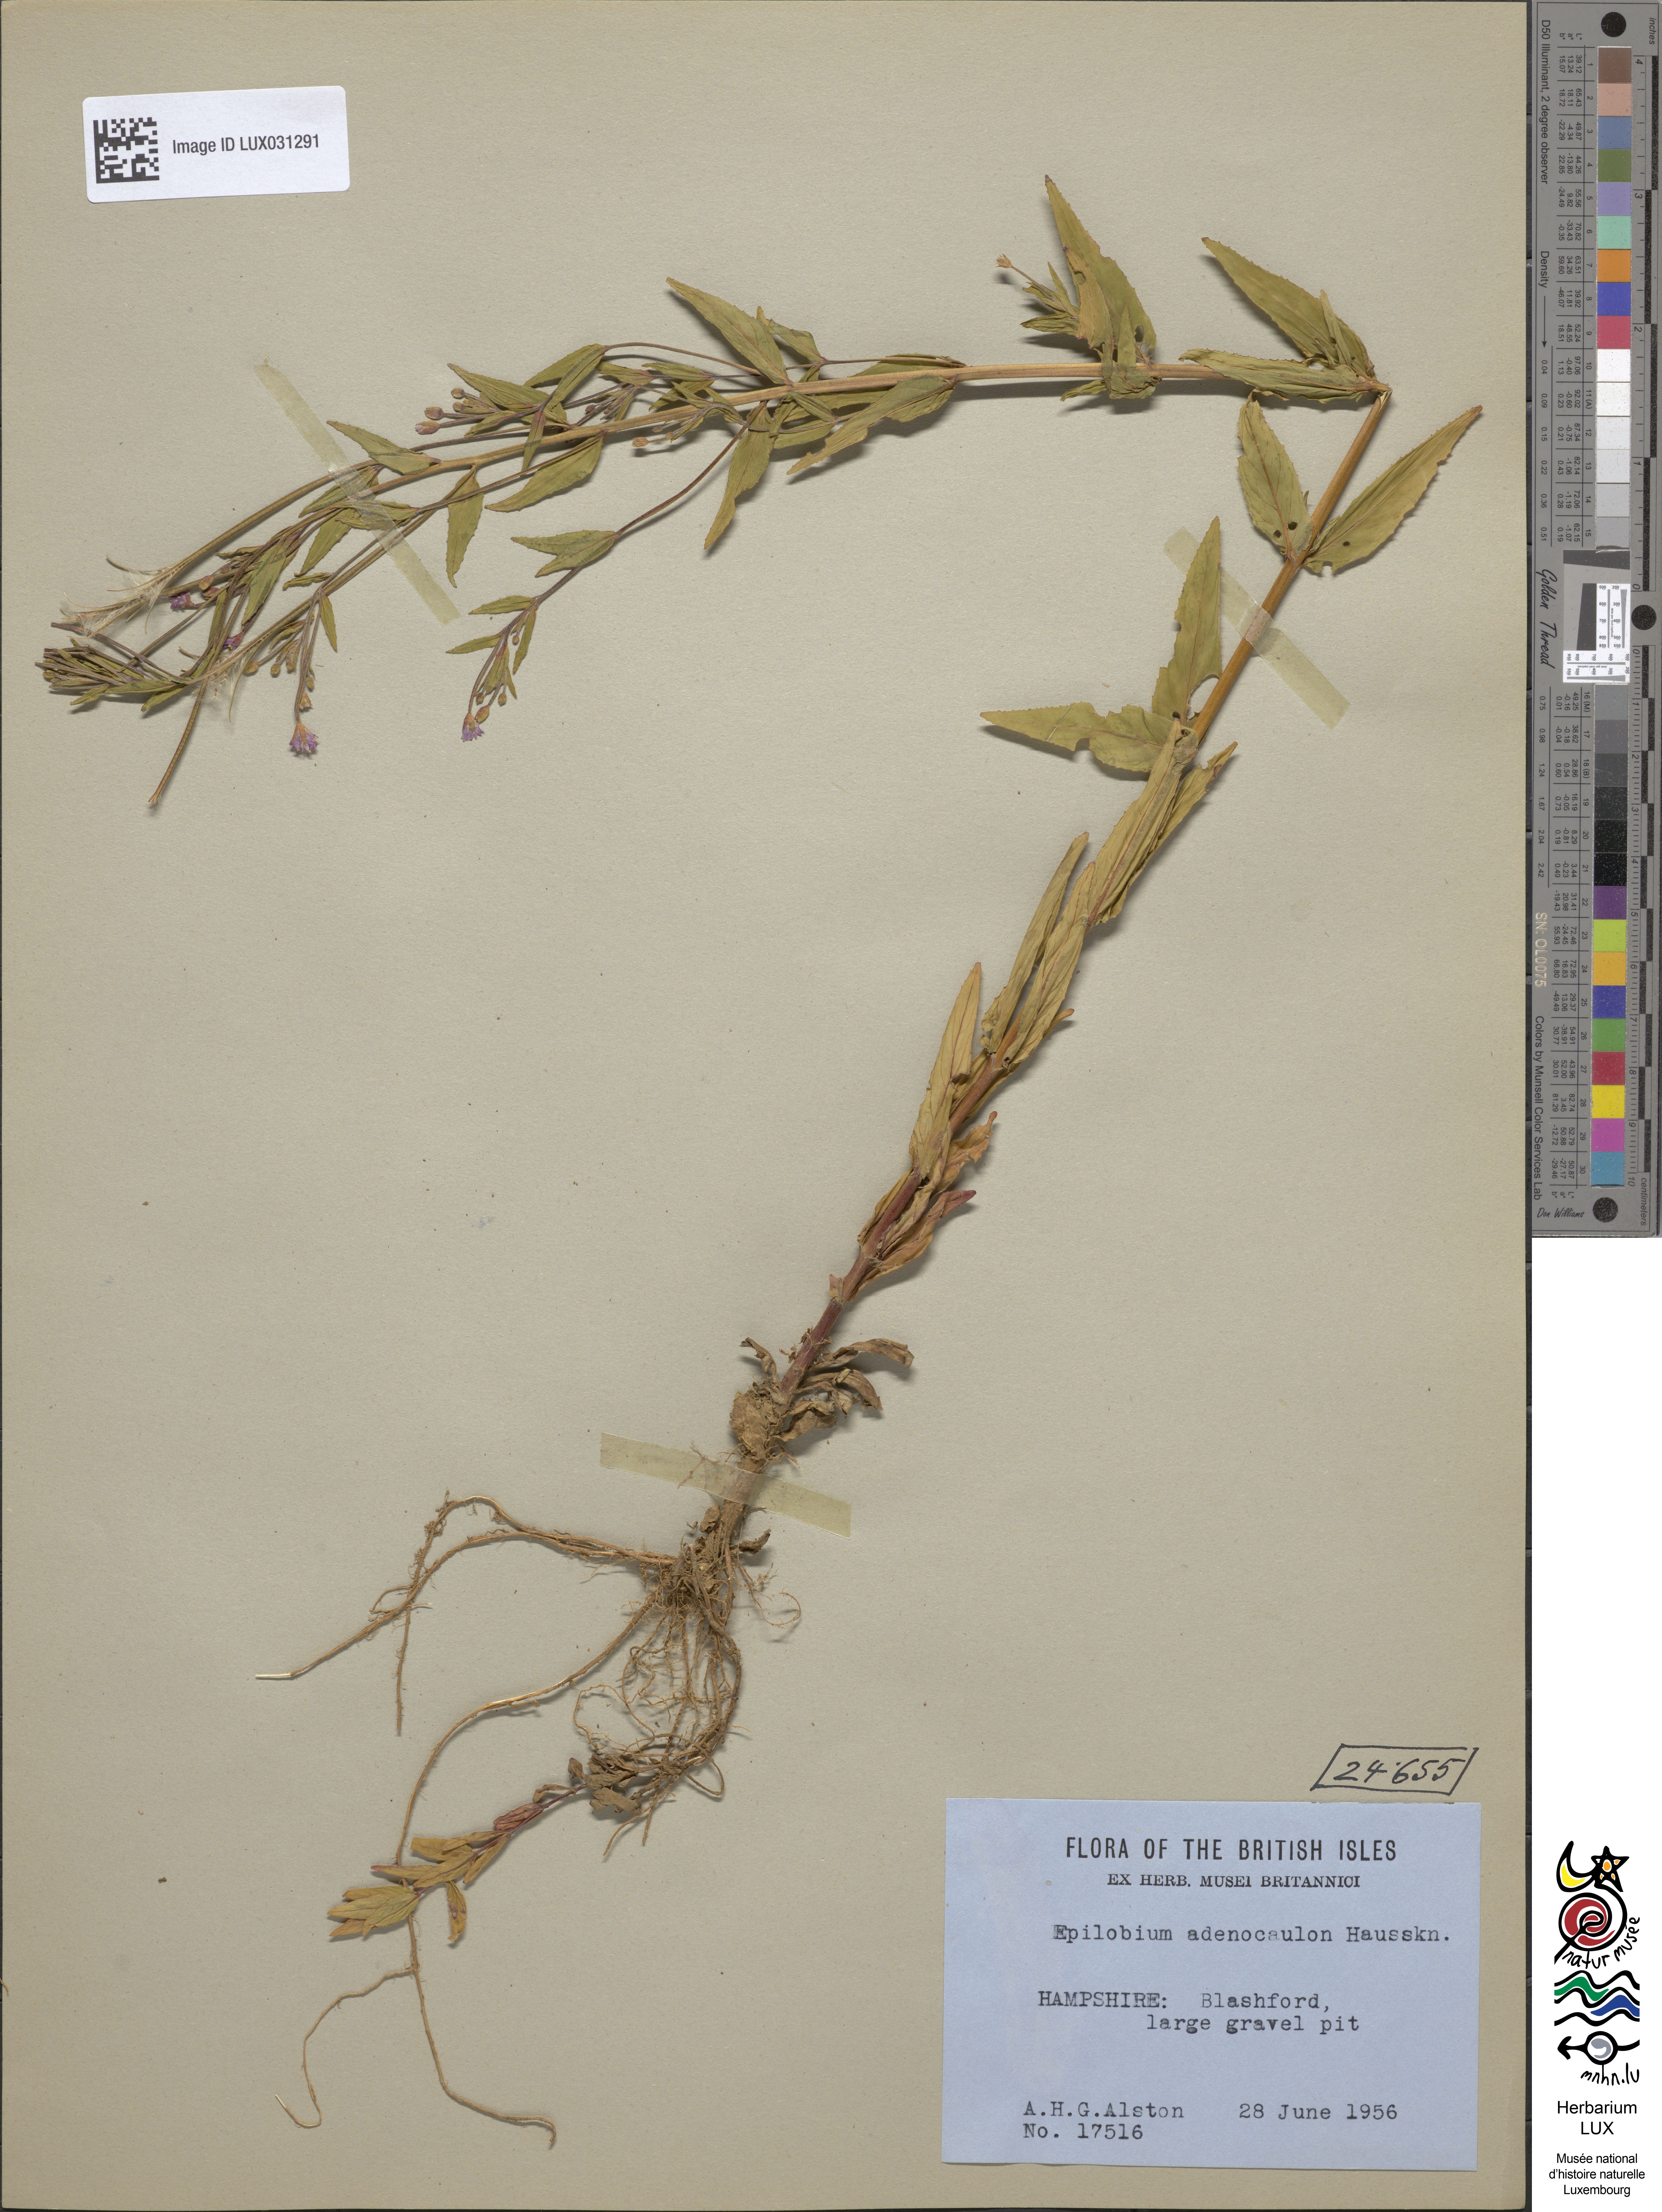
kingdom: Plantae
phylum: Tracheophyta
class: Magnoliopsida
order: Myrtales
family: Onagraceae
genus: Epilobium
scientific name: Epilobium ciliatum
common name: American willowherb
